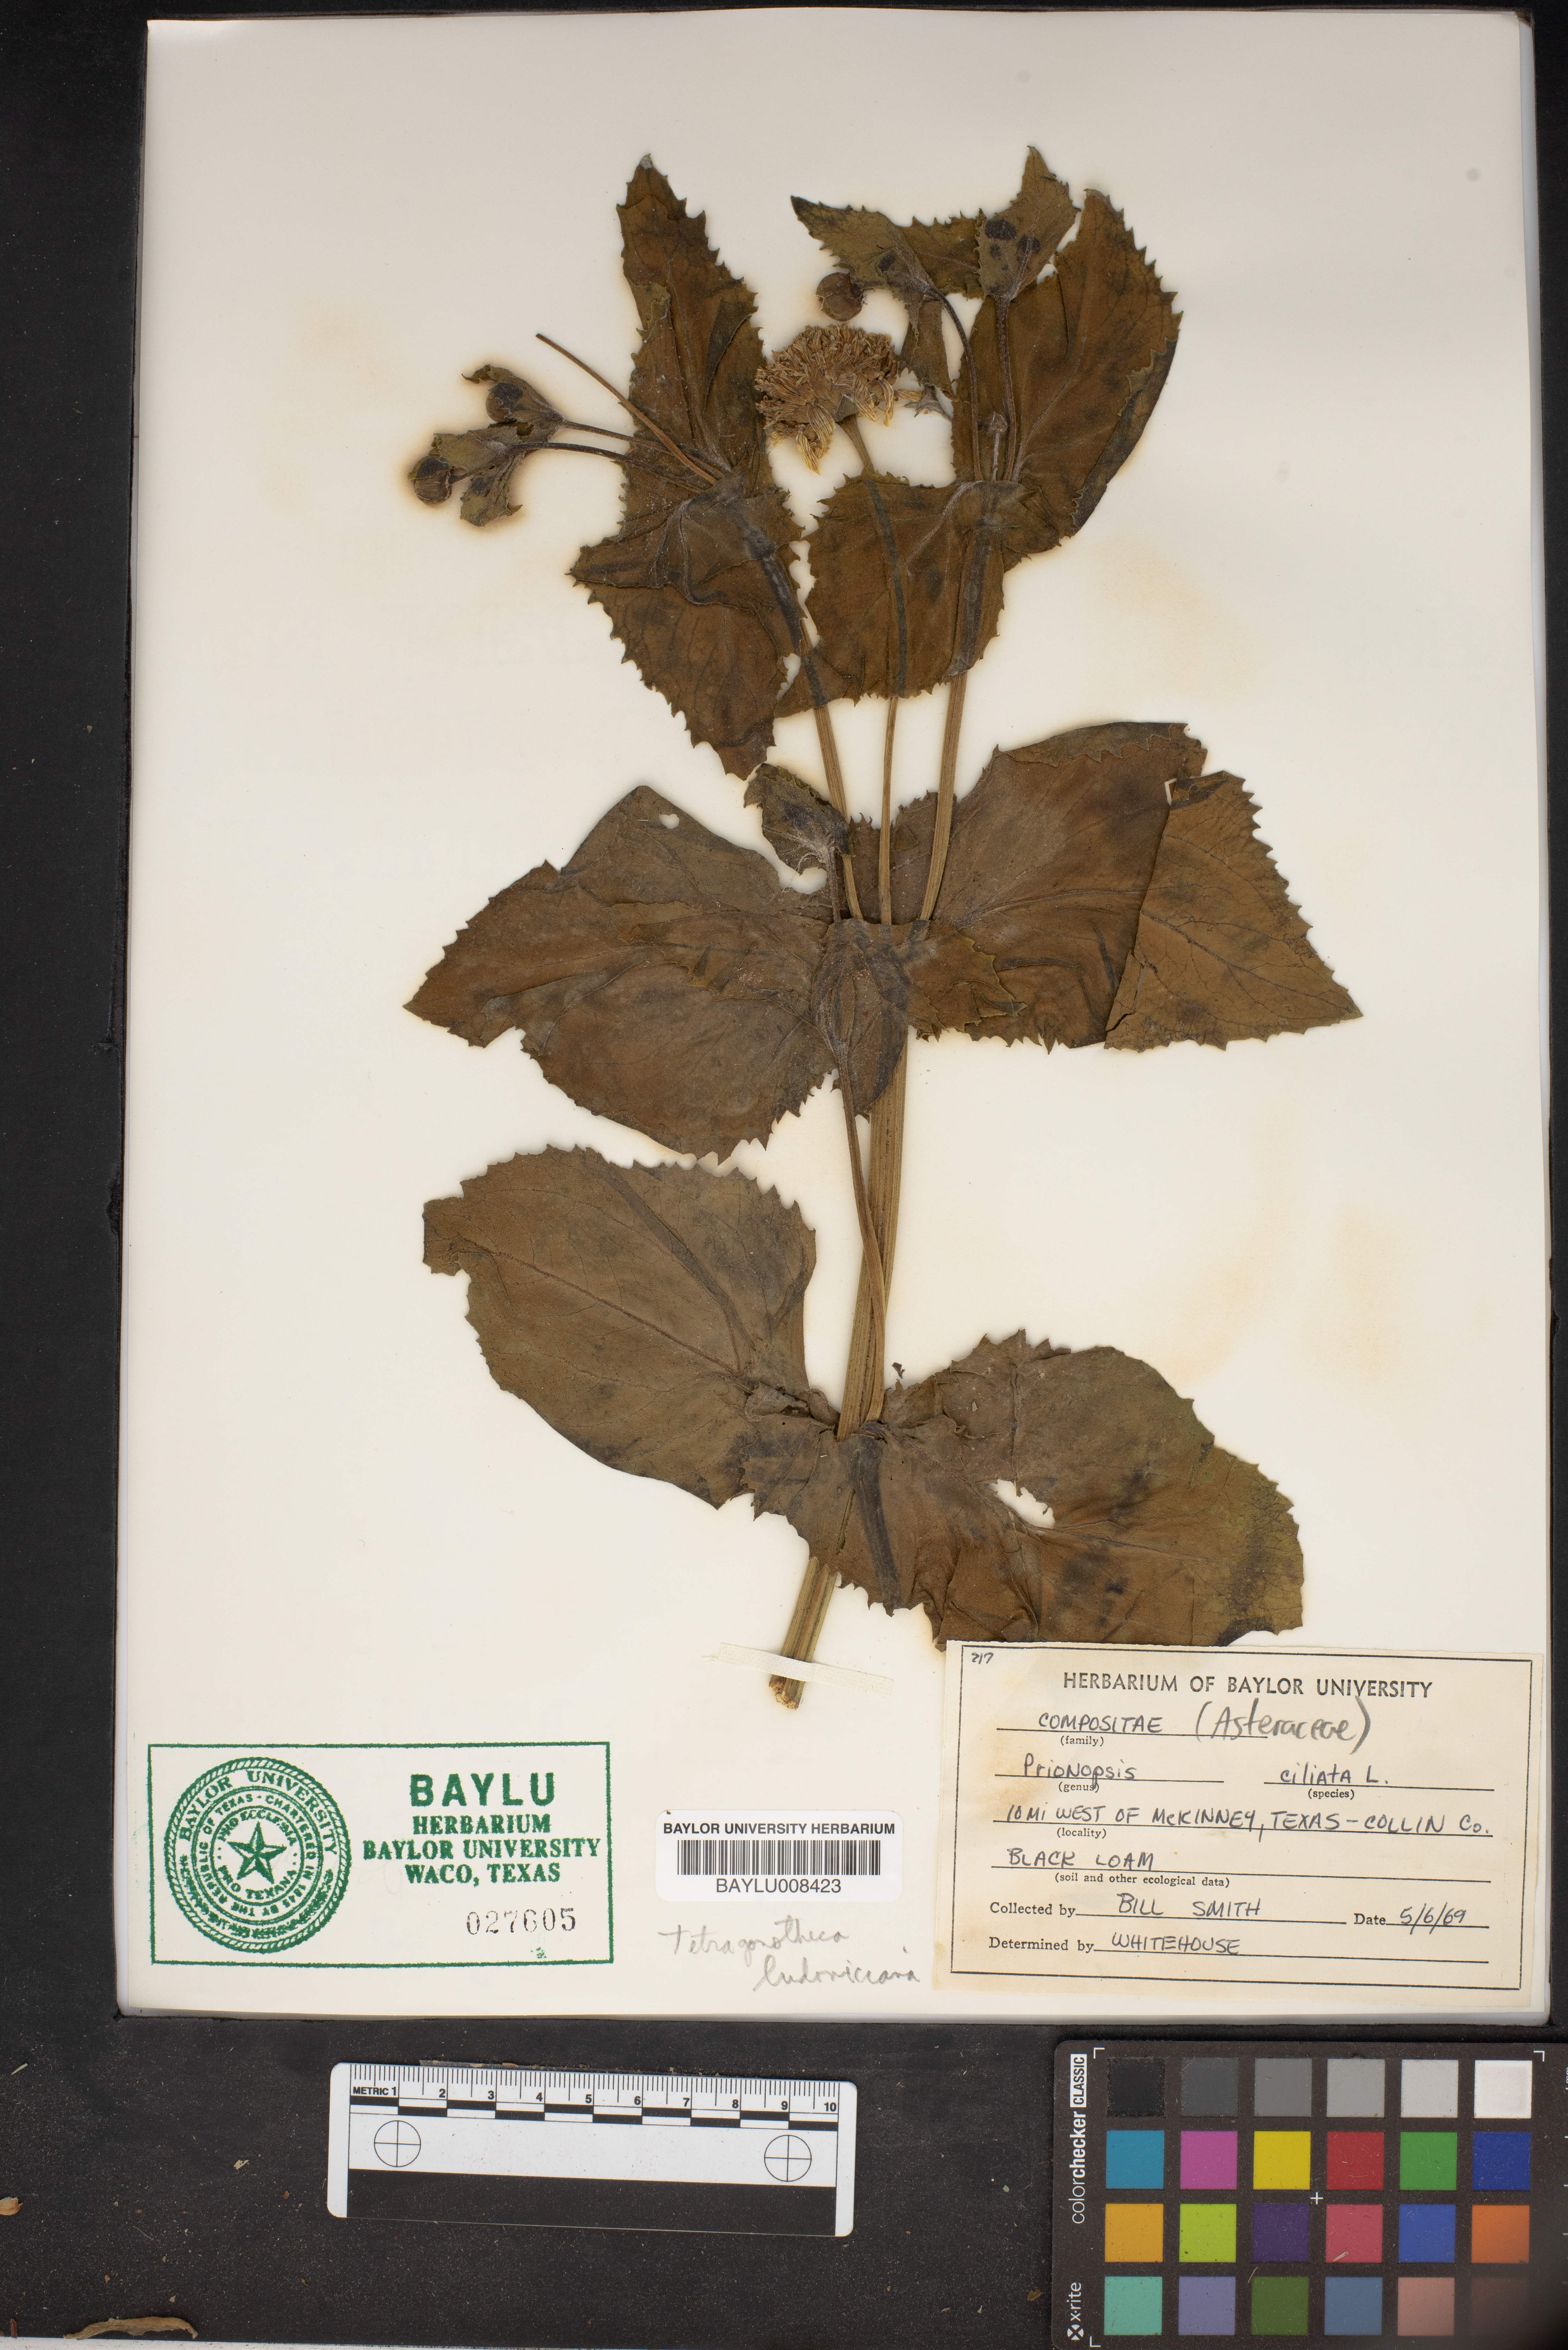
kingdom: Plantae
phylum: Tracheophyta
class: Magnoliopsida
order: Asterales
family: Asteraceae
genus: Grindelia
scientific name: Grindelia ciliata
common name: Goldenweed
